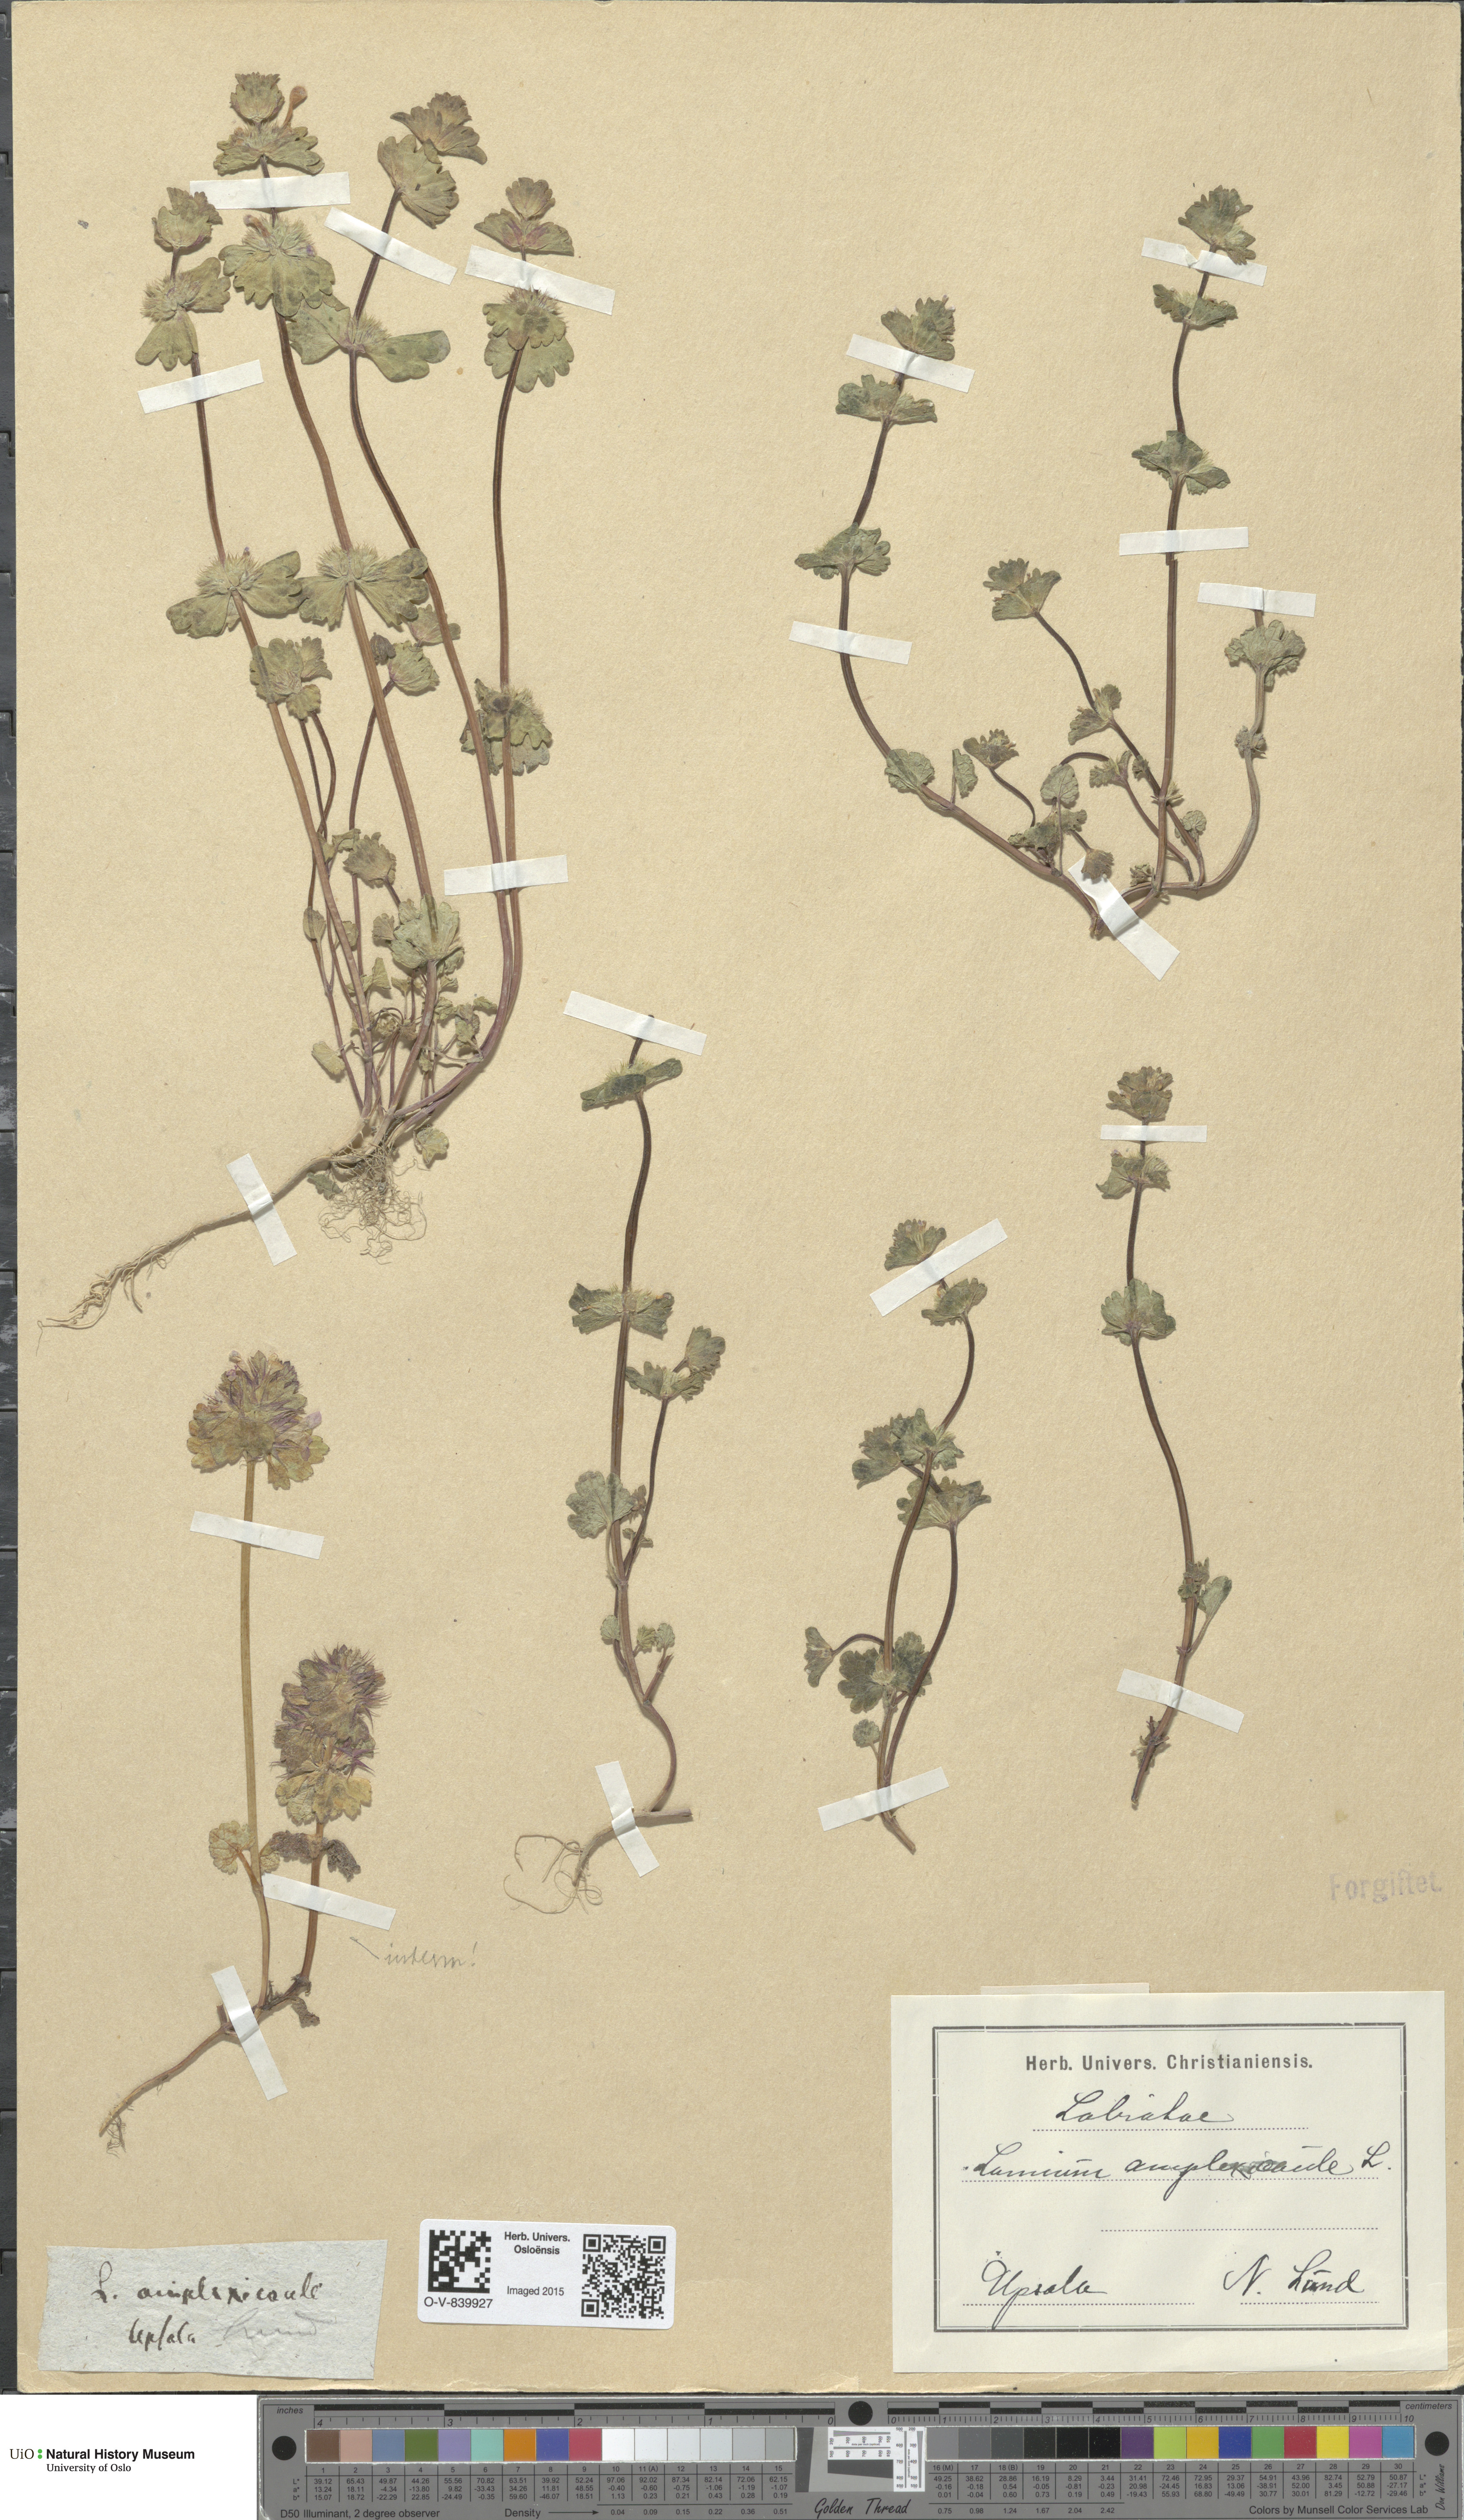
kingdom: Plantae
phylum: Tracheophyta
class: Magnoliopsida
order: Lamiales
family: Lamiaceae
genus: Lamium
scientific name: Lamium amplexicaule
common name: Henbit dead-nettle
